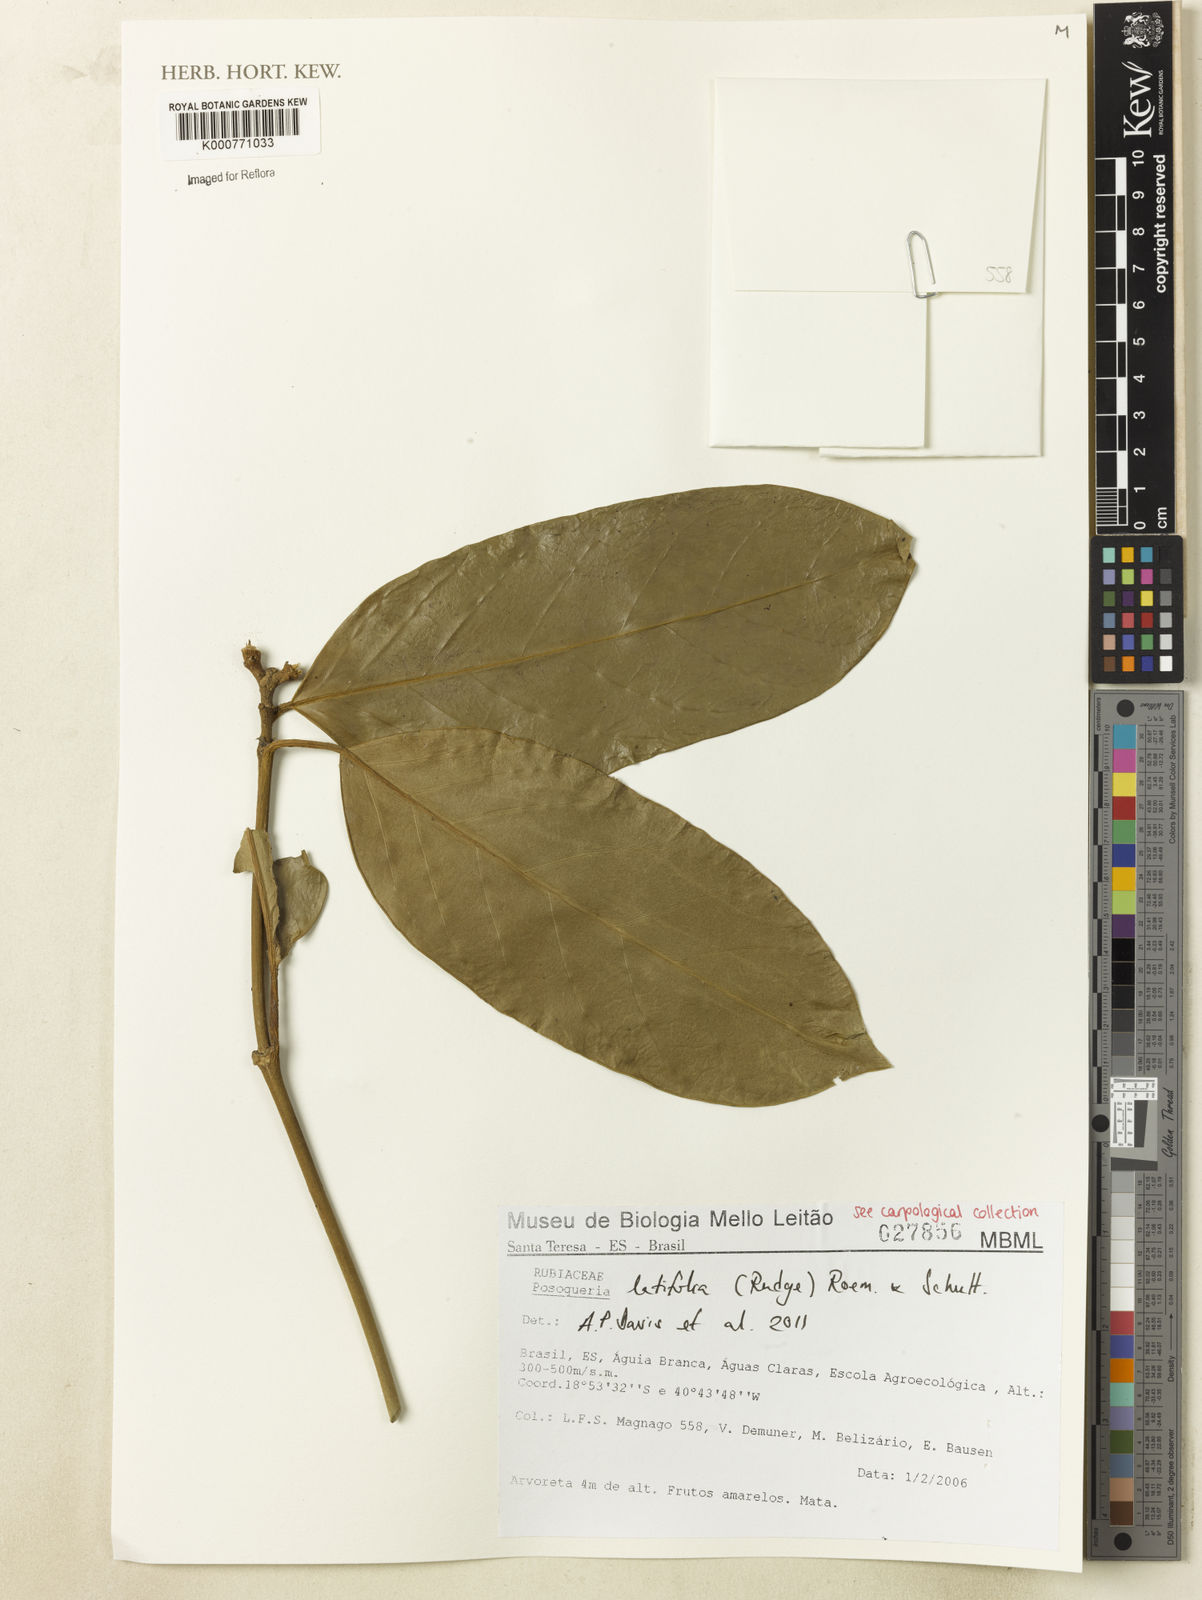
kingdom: Plantae
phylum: Tracheophyta
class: Magnoliopsida
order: Gentianales
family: Rubiaceae
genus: Posoqueria
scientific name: Posoqueria latifolia
